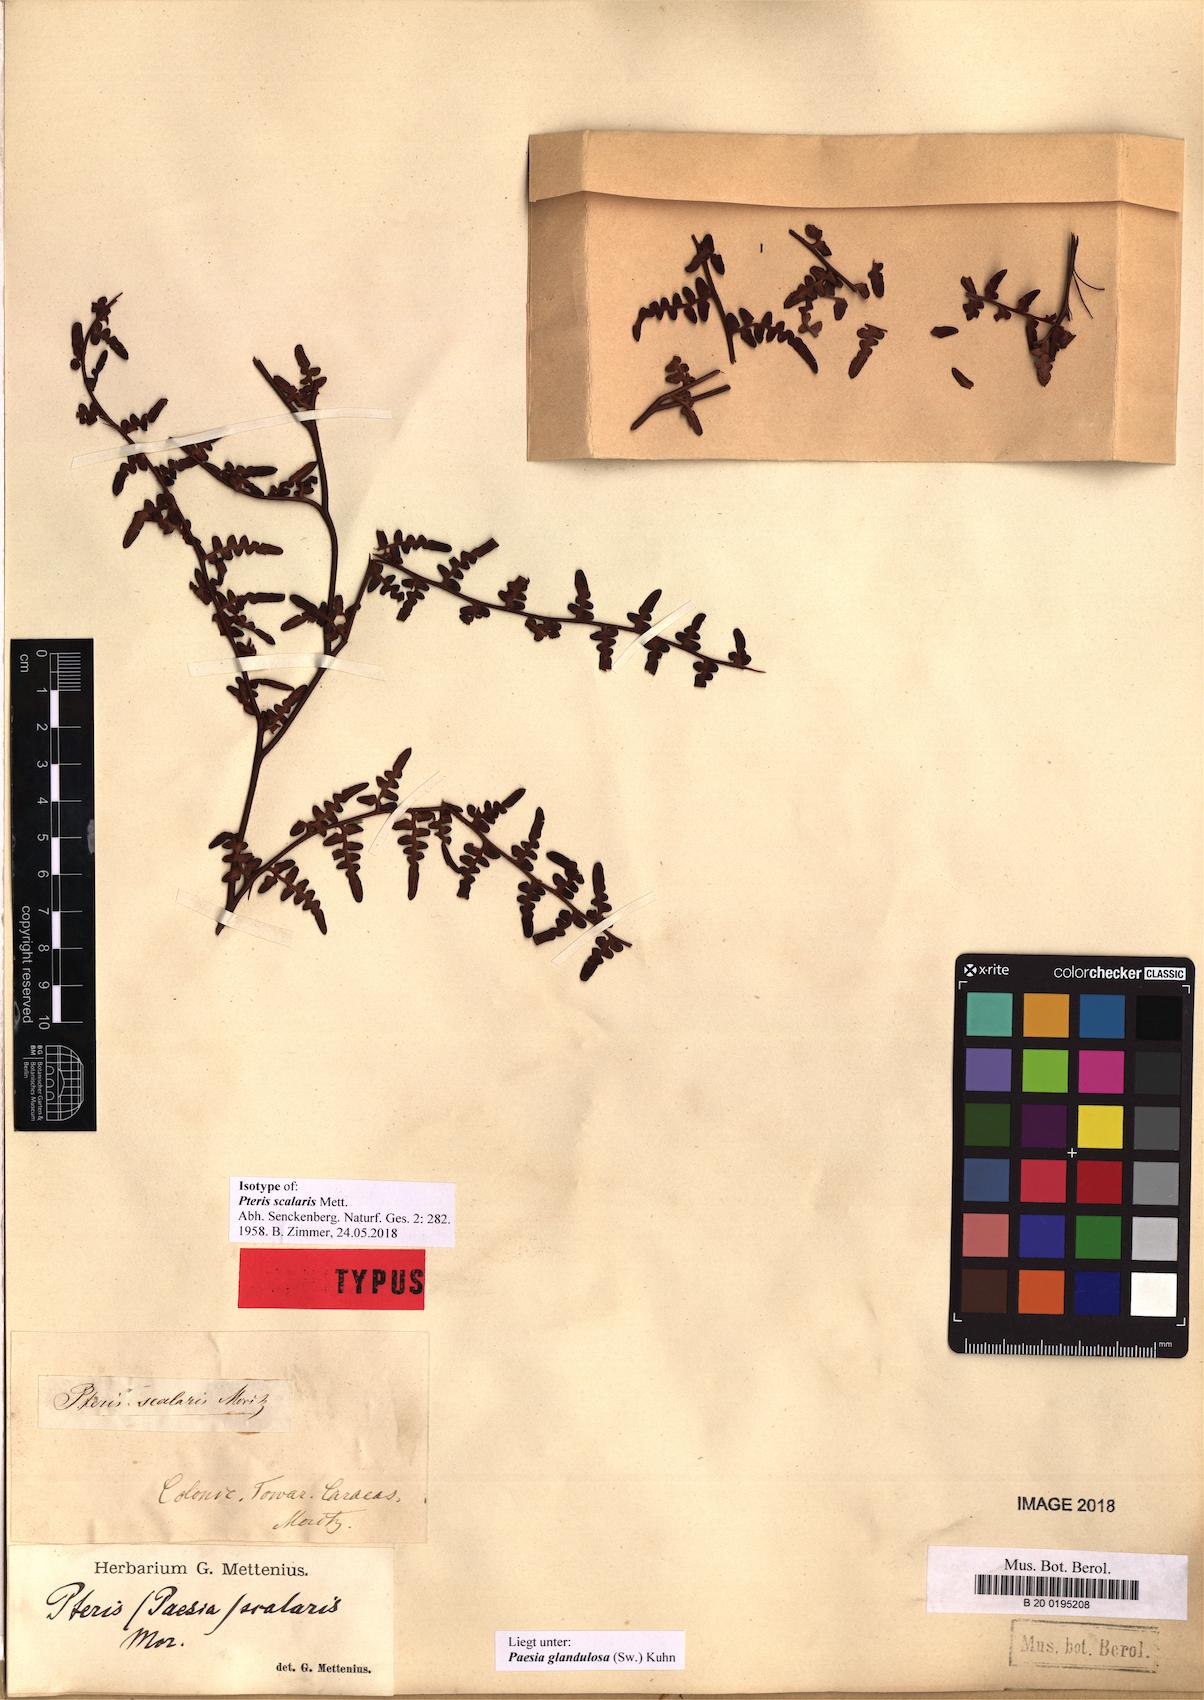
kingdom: Plantae
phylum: Tracheophyta
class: Polypodiopsida
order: Polypodiales
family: Dennstaedtiaceae
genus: Paesia
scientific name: Paesia glandulosa
